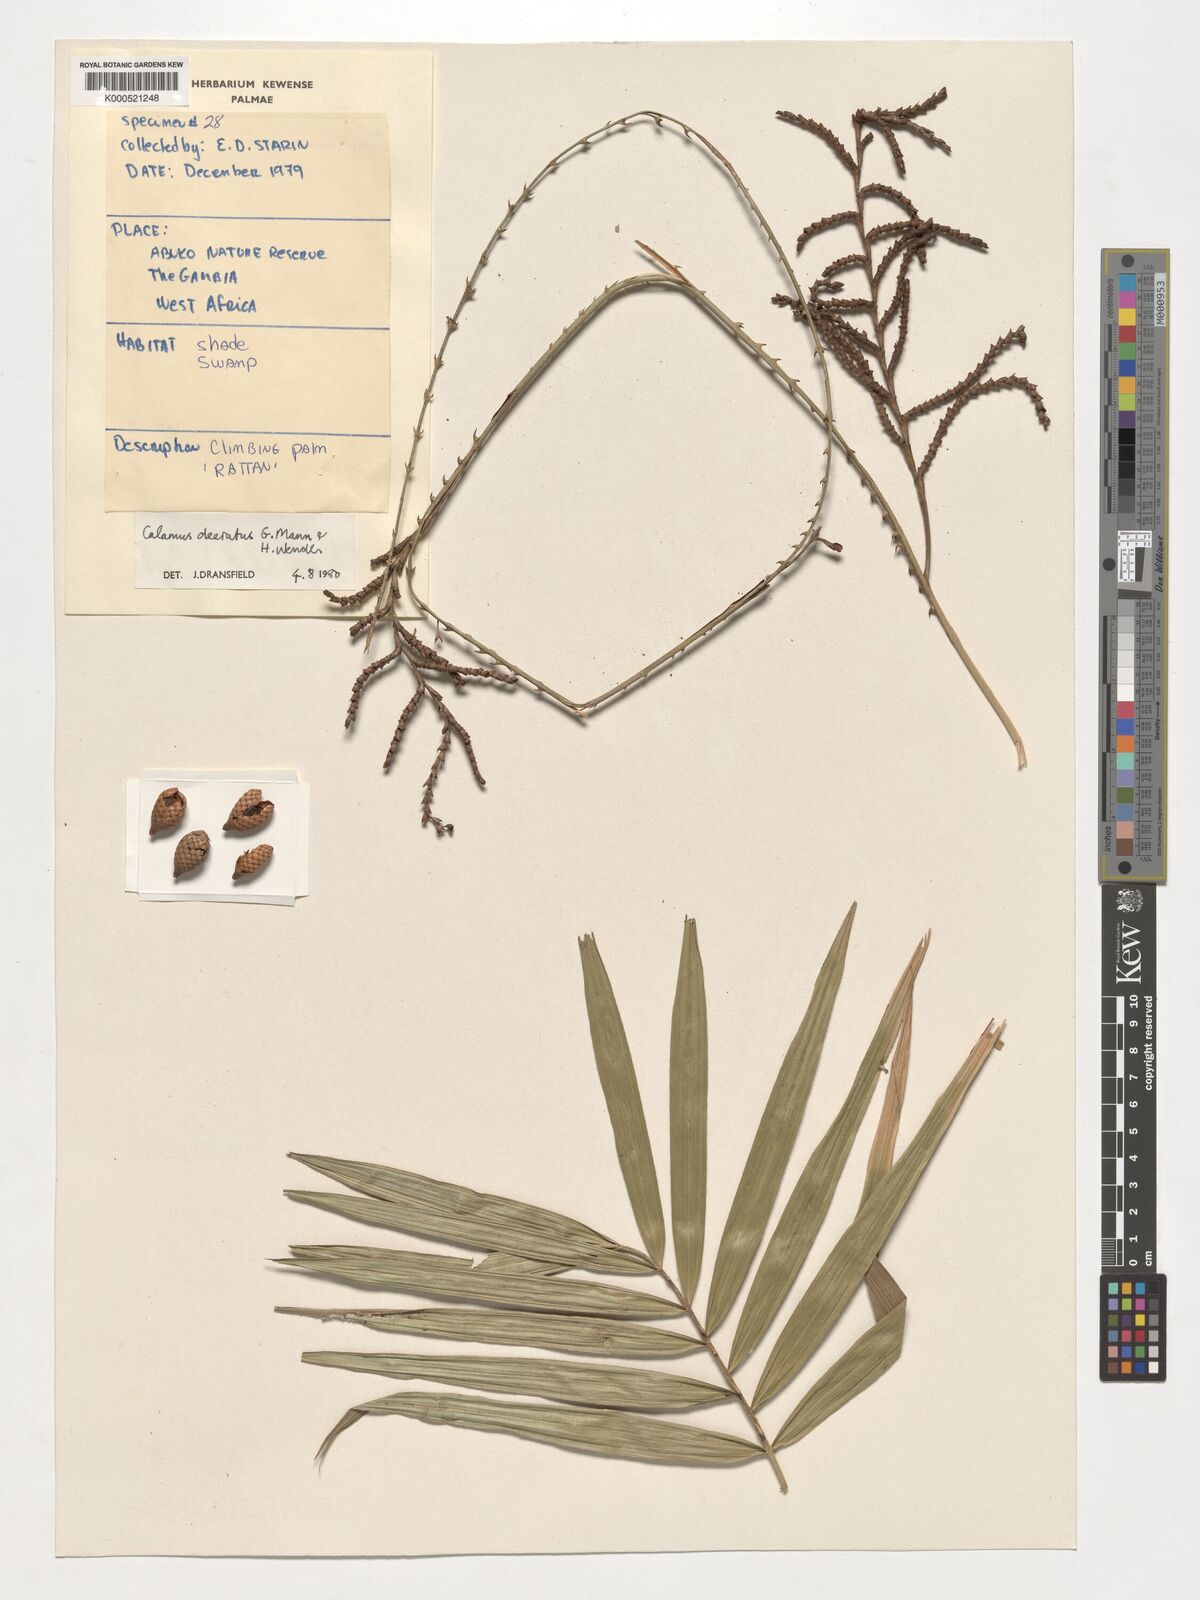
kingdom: Plantae
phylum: Tracheophyta
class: Liliopsida
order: Arecales
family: Arecaceae
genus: Calamus
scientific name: Calamus deerratus
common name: Rattan
